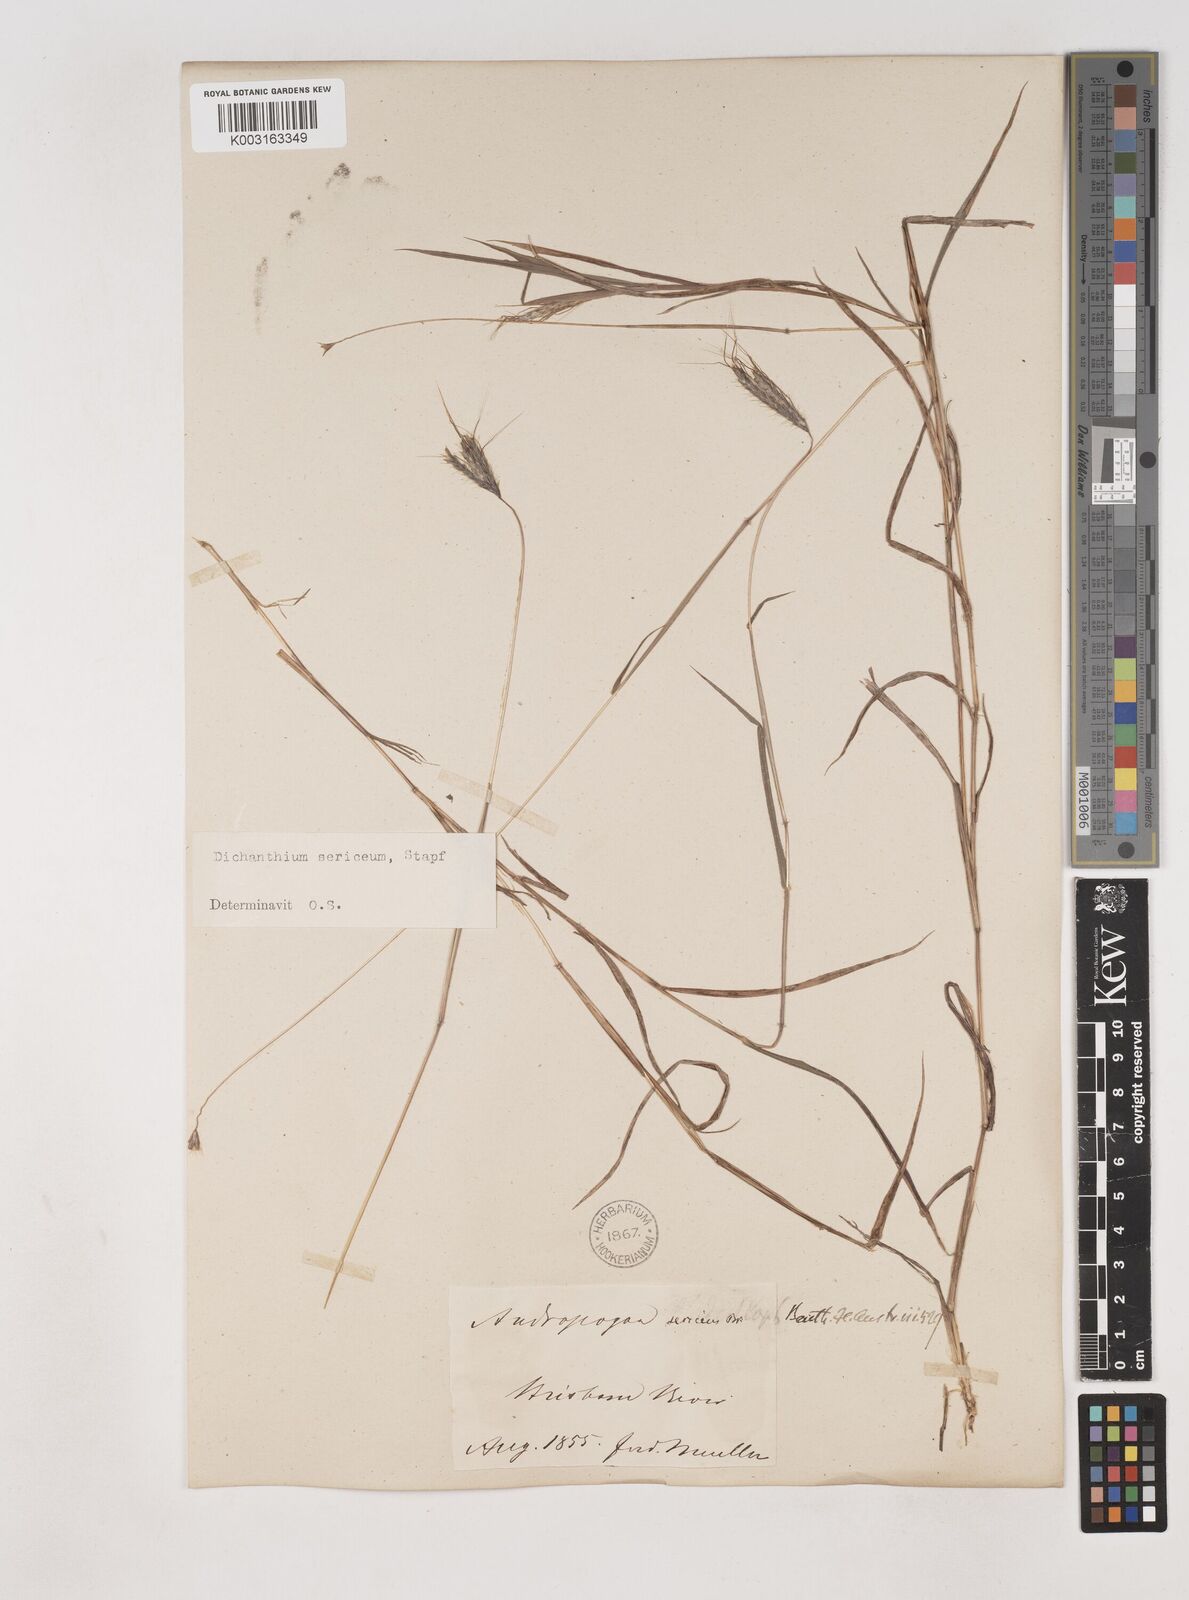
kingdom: Plantae
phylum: Tracheophyta
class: Liliopsida
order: Poales
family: Poaceae
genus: Dichanthium
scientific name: Dichanthium sericeum
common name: Silky bluestem
